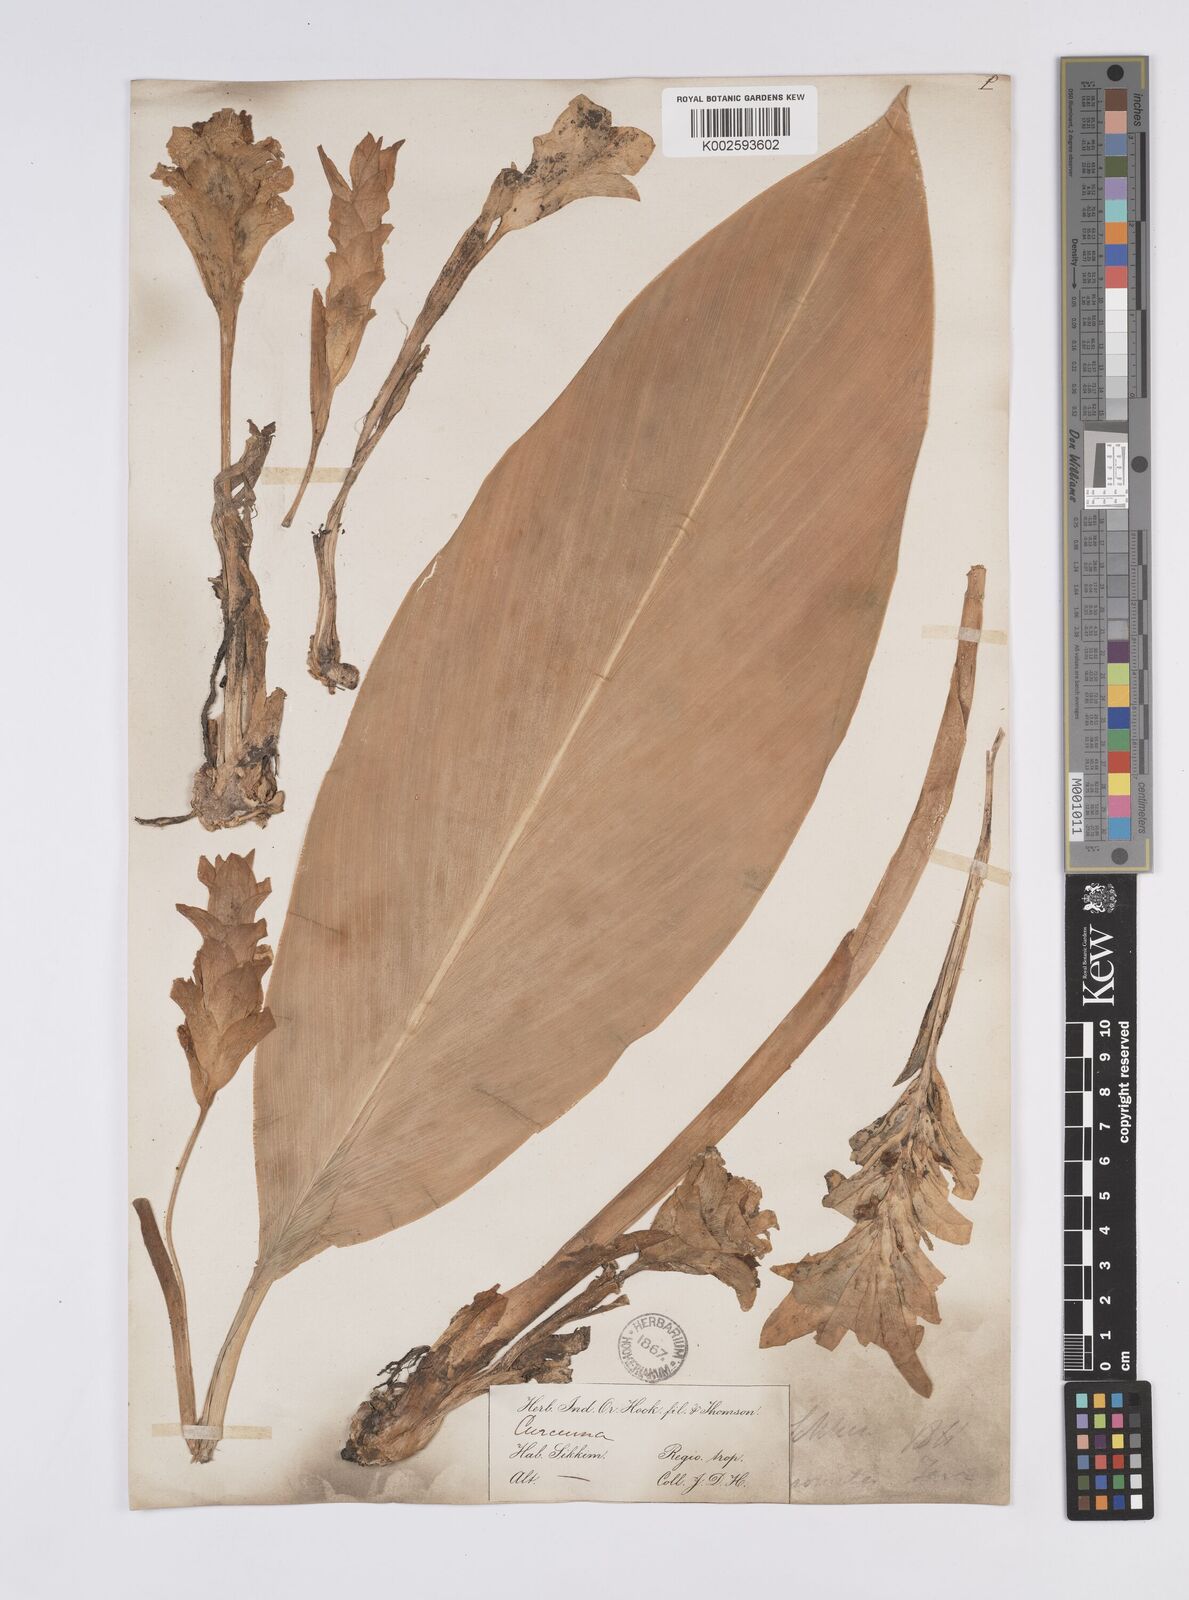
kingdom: Plantae
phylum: Tracheophyta
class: Liliopsida
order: Zingiberales
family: Zingiberaceae
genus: Curcuma
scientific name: Curcuma aromatica
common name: Wild turmeric
